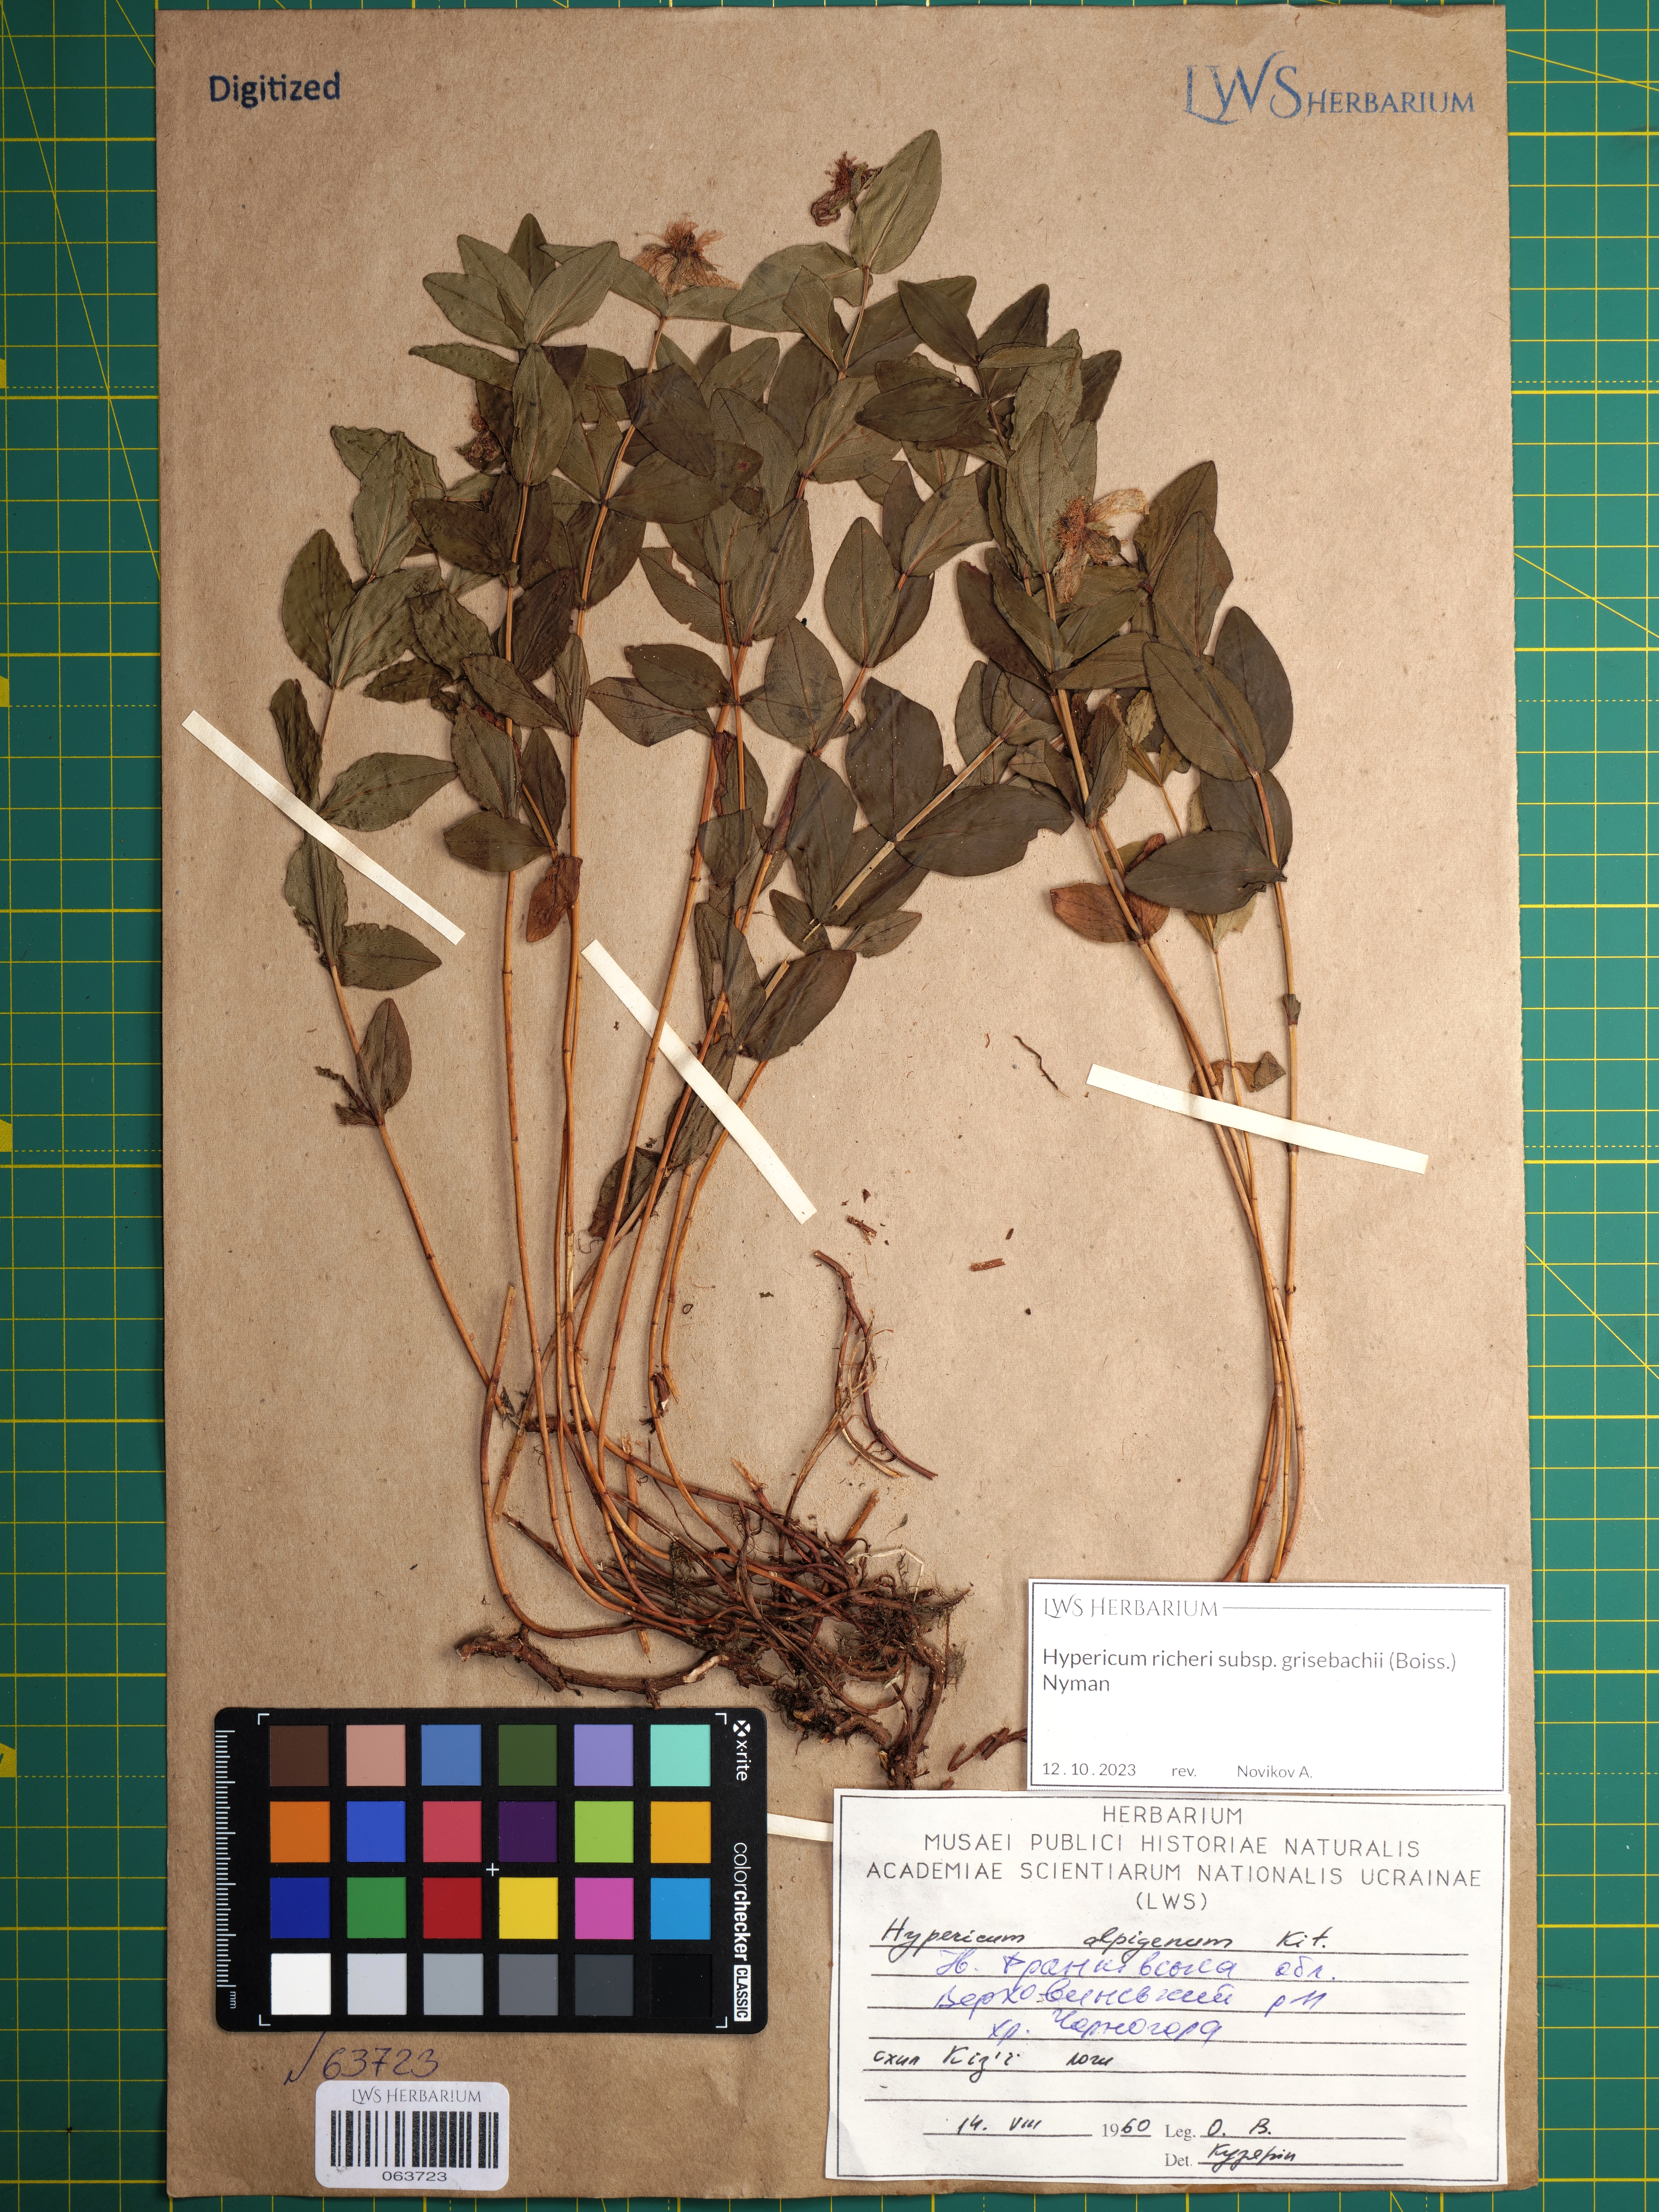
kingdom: Plantae
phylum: Tracheophyta
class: Magnoliopsida
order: Malpighiales
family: Hypericaceae
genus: Hypericum
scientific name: Hypericum richeri
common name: Alpine st john's-wort
